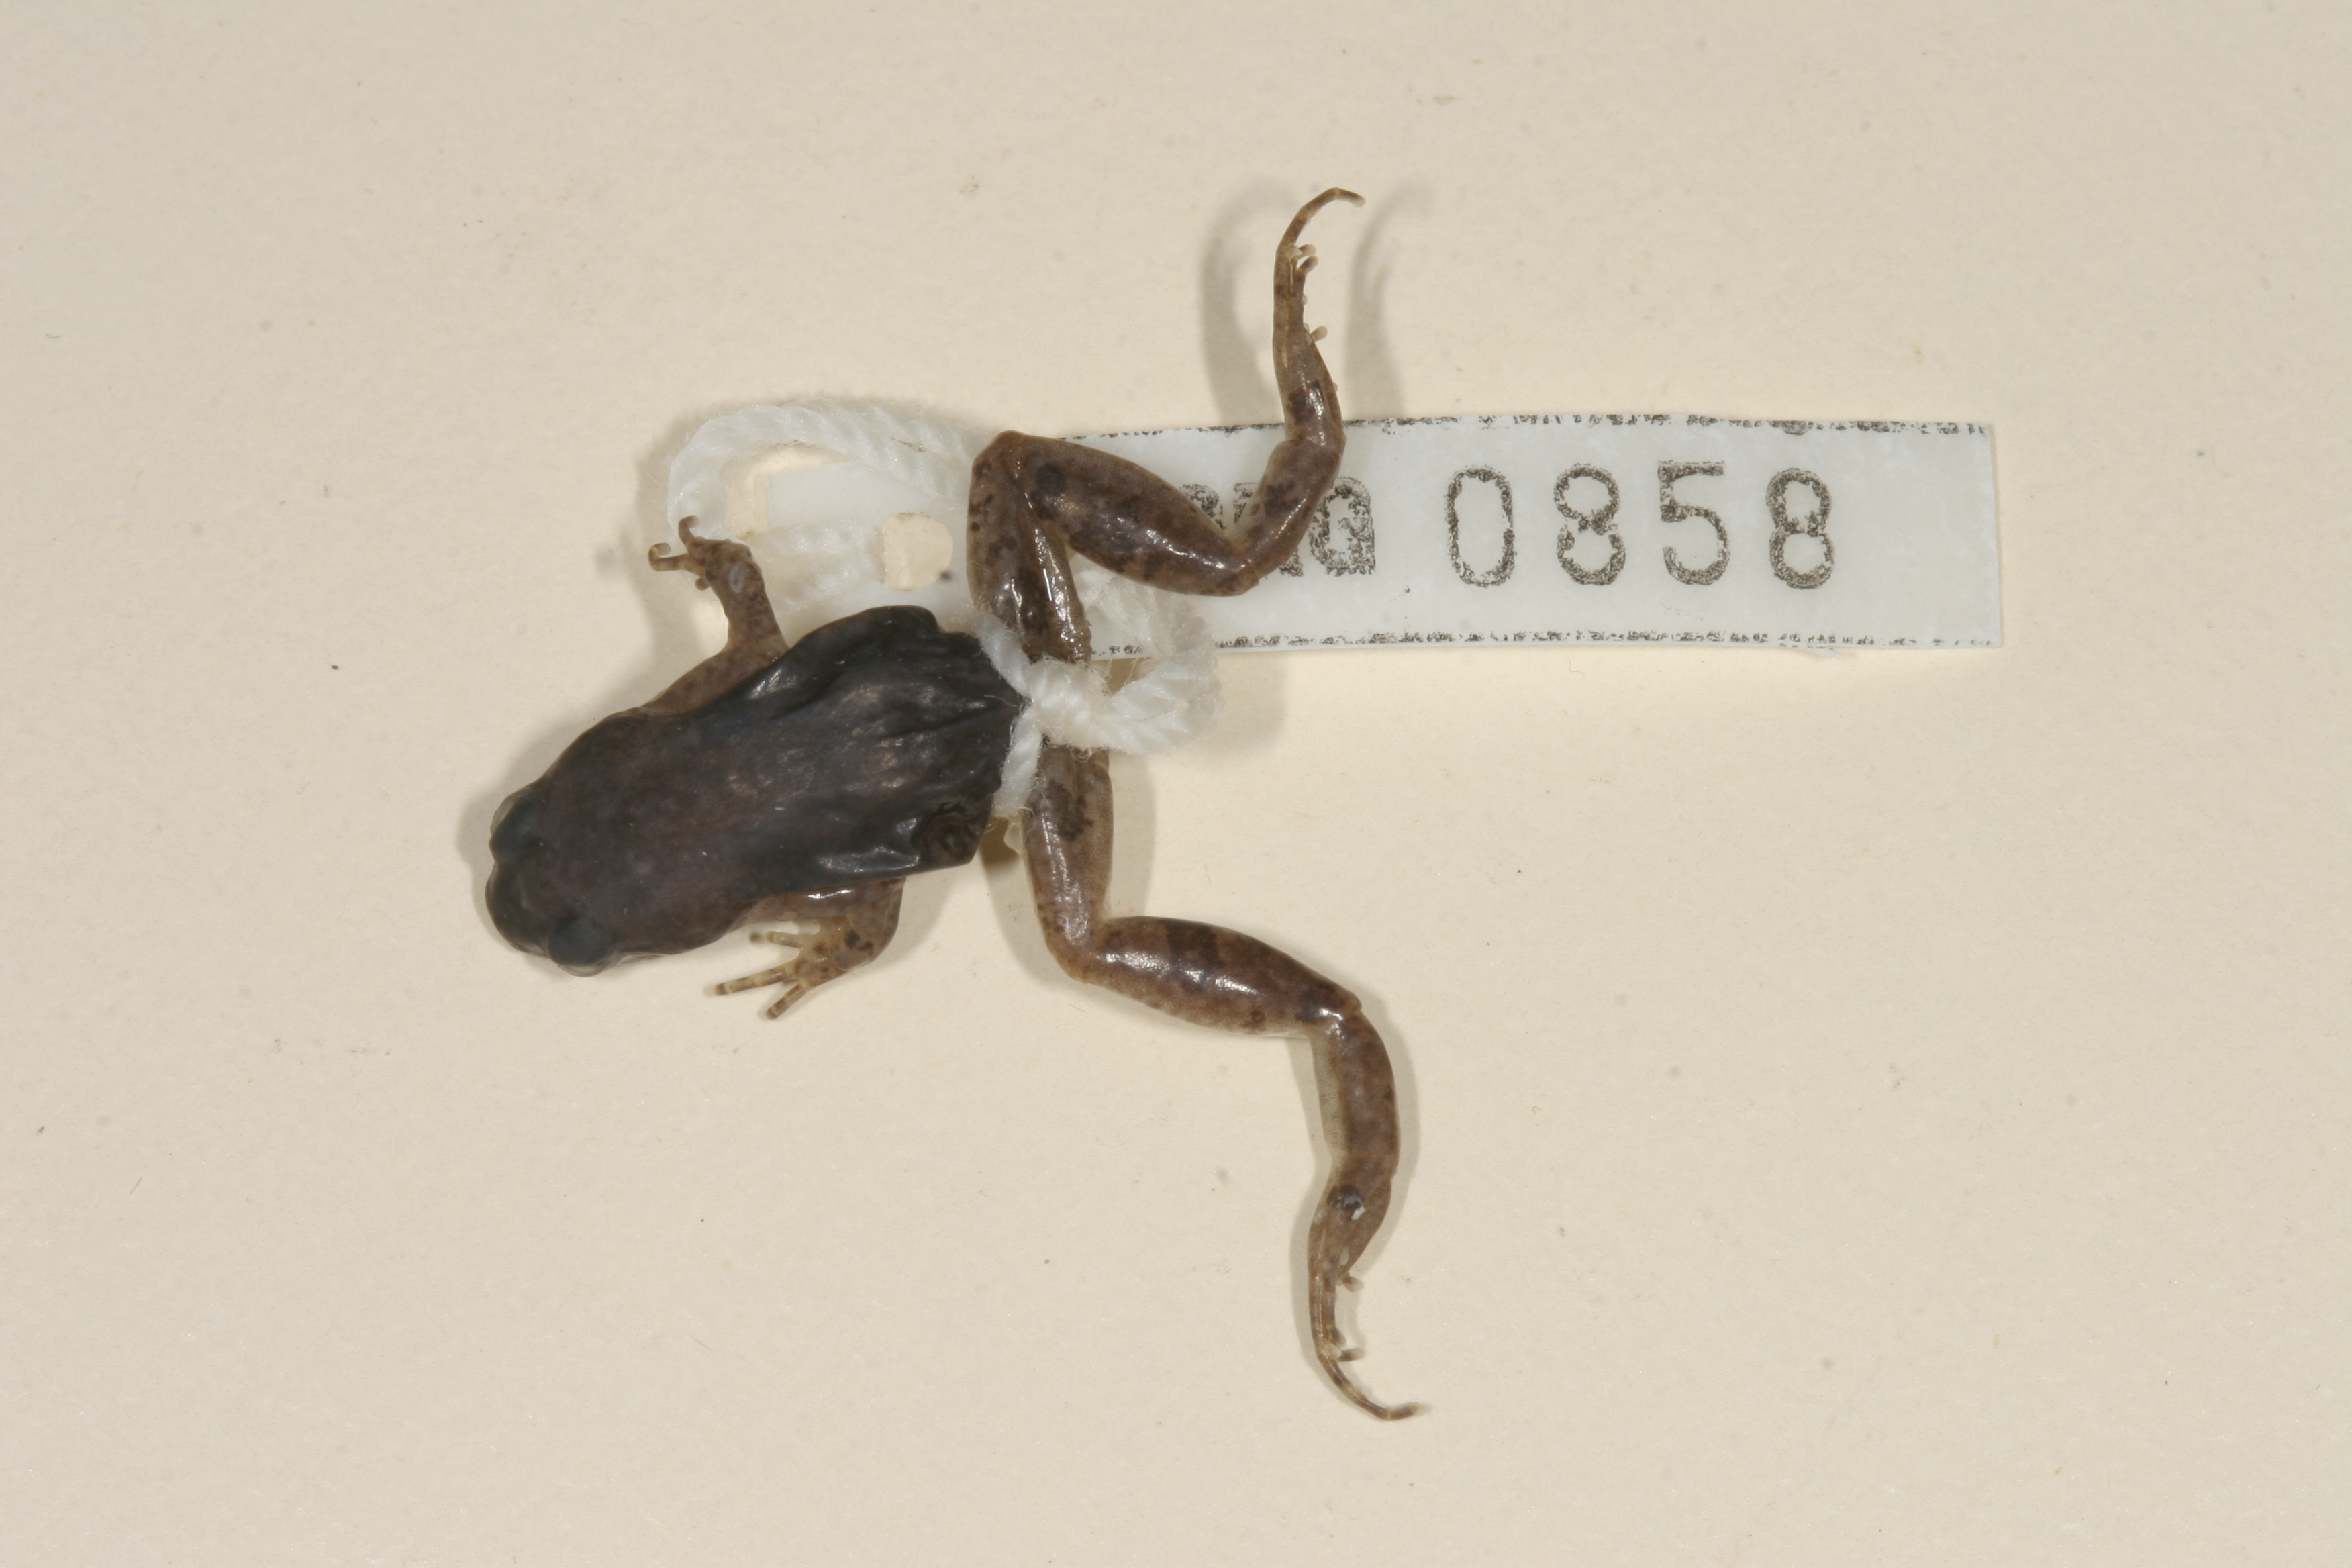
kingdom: Animalia
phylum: Chordata
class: Amphibia
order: Anura
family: Pyxicephalidae
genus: Cacosternum
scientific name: Cacosternum plimptoni
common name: Plimpton's dainty frog
